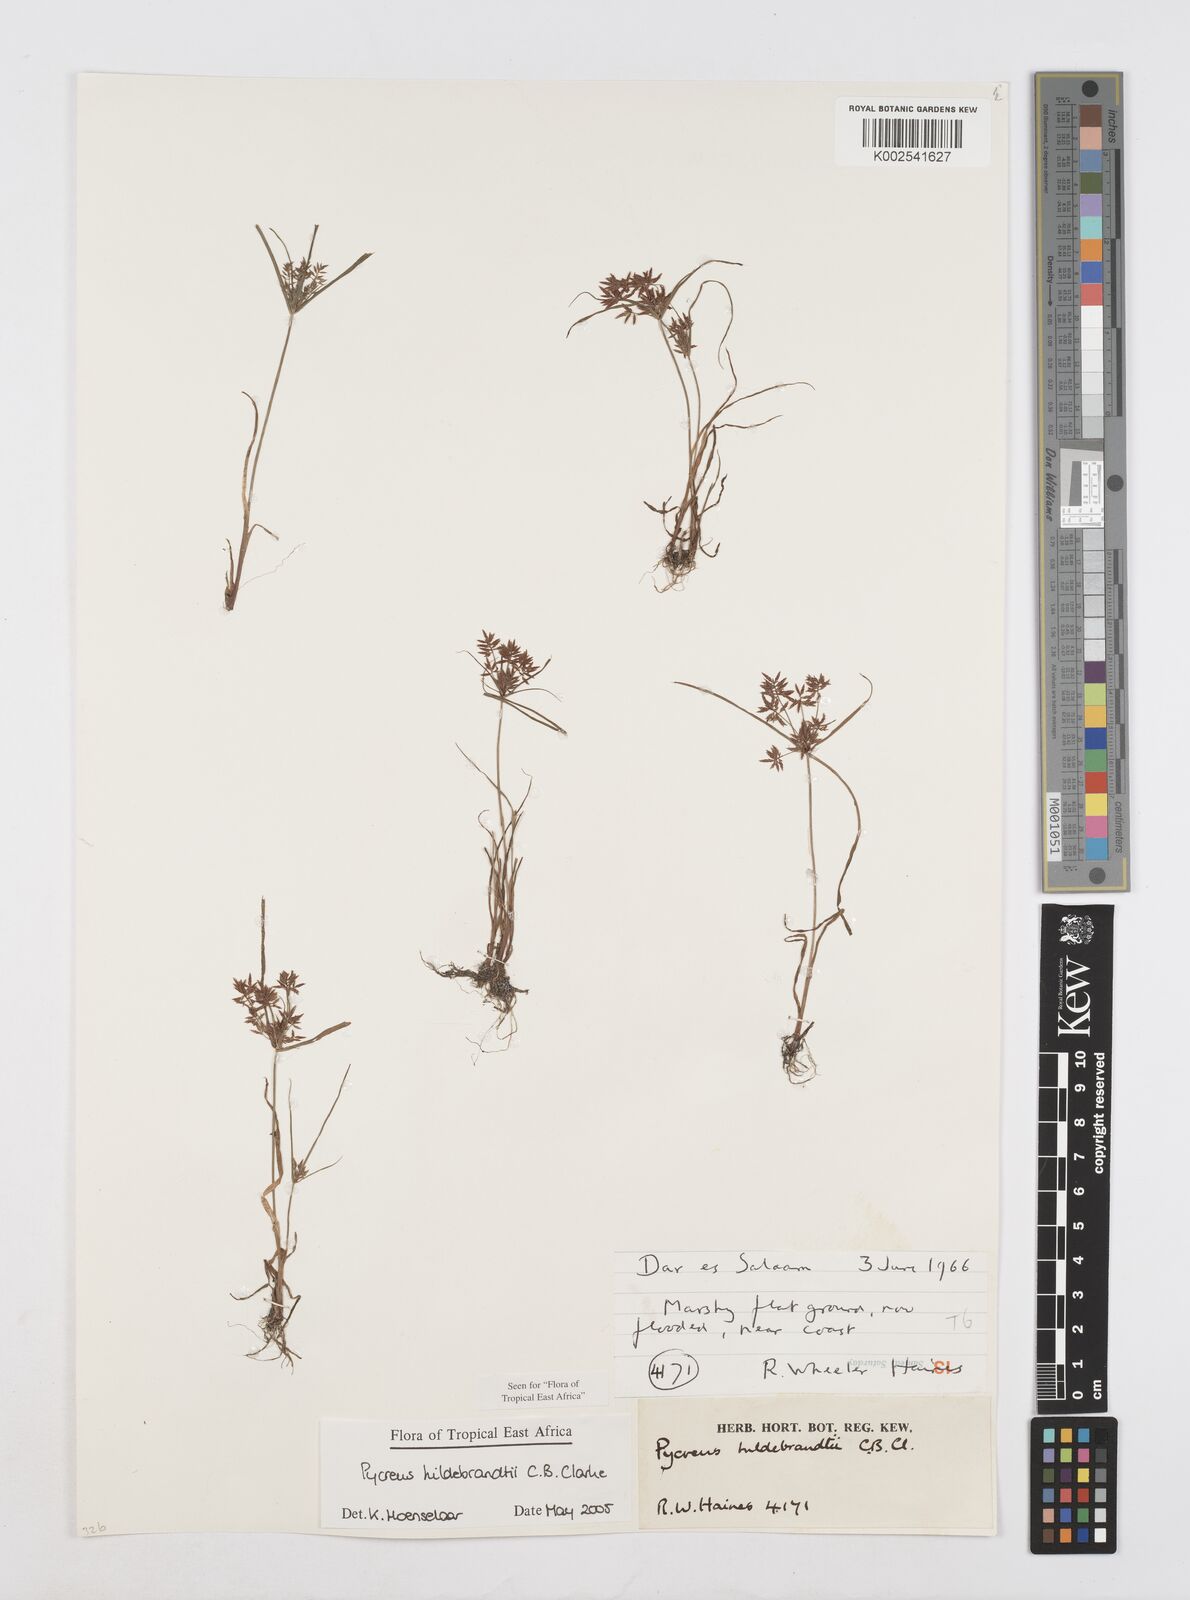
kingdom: Plantae
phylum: Tracheophyta
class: Liliopsida
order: Poales
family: Cyperaceae
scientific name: Cyperaceae
